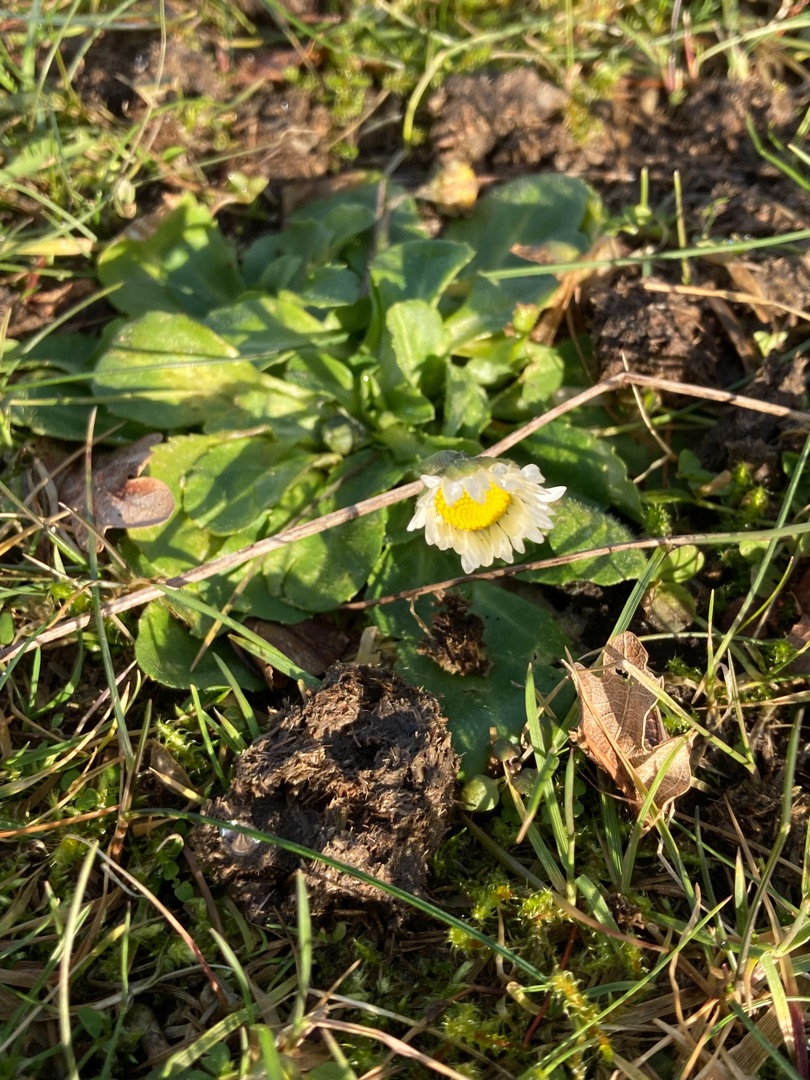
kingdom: Plantae
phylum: Tracheophyta
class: Magnoliopsida
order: Asterales
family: Asteraceae
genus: Bellis
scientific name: Bellis perennis
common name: Tusindfryd
